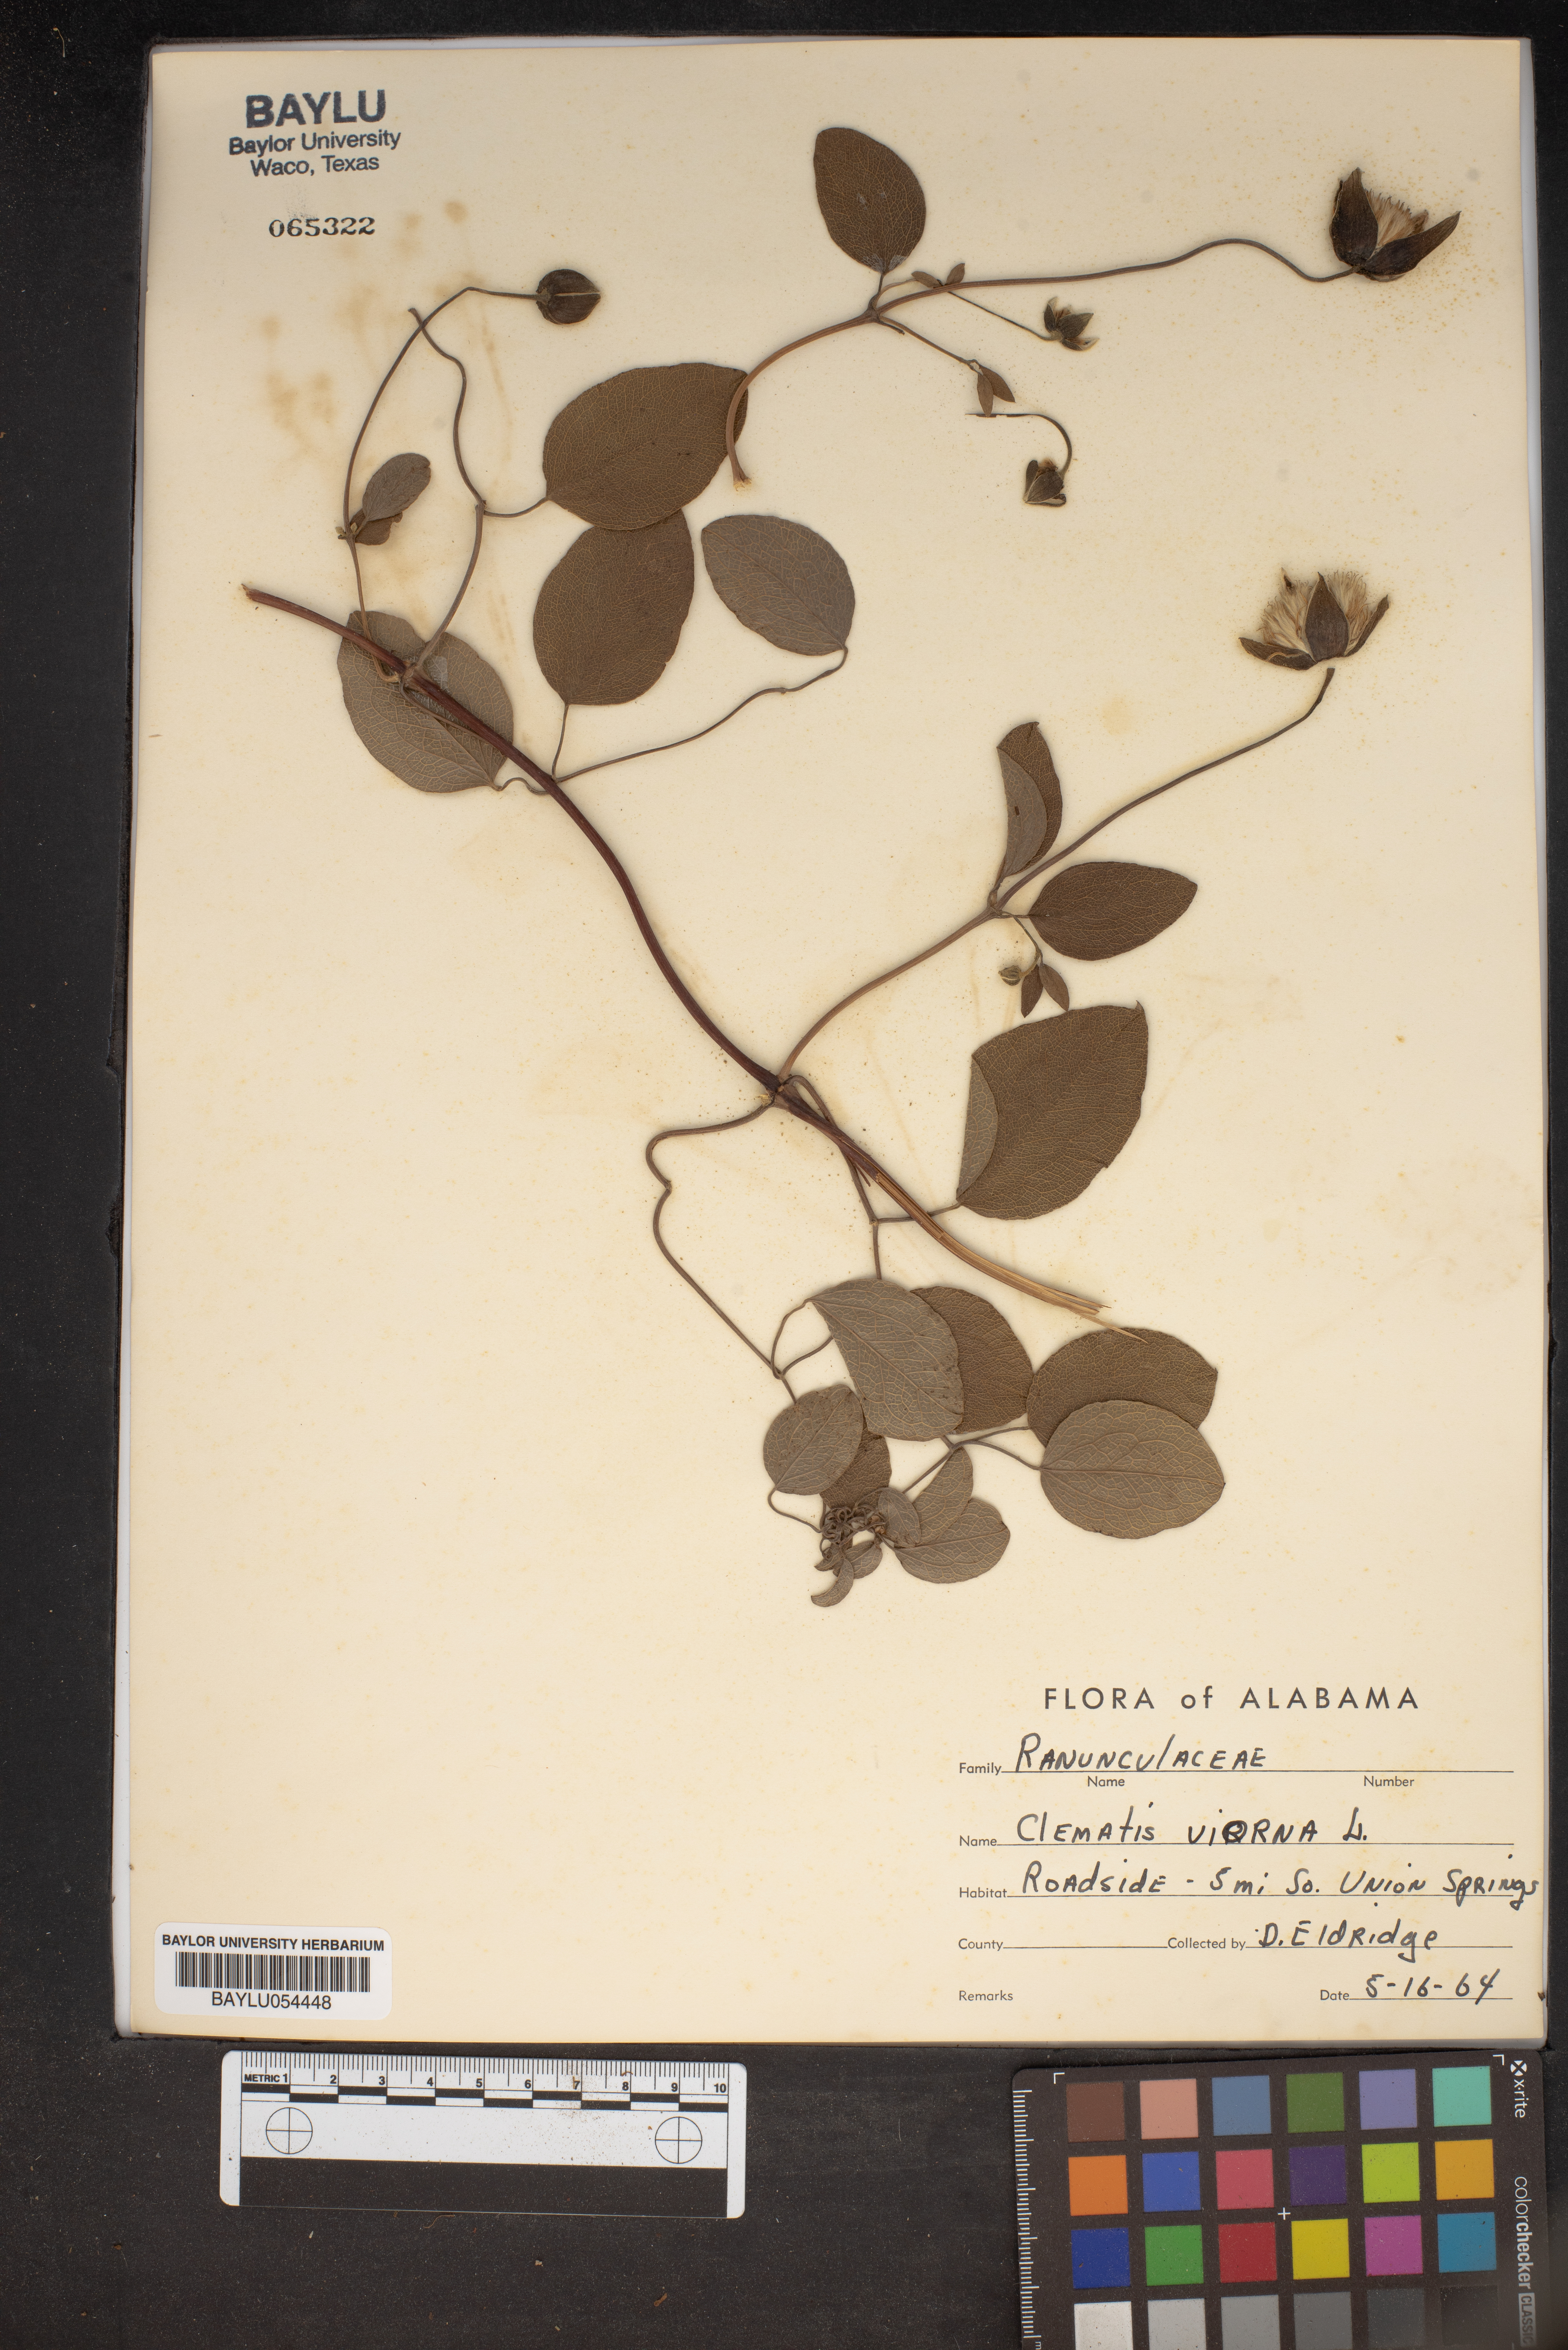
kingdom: Plantae
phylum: Tracheophyta
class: Magnoliopsida
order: Ranunculales
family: Ranunculaceae
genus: Clematis
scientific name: Clematis viorna
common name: Leather-flower
